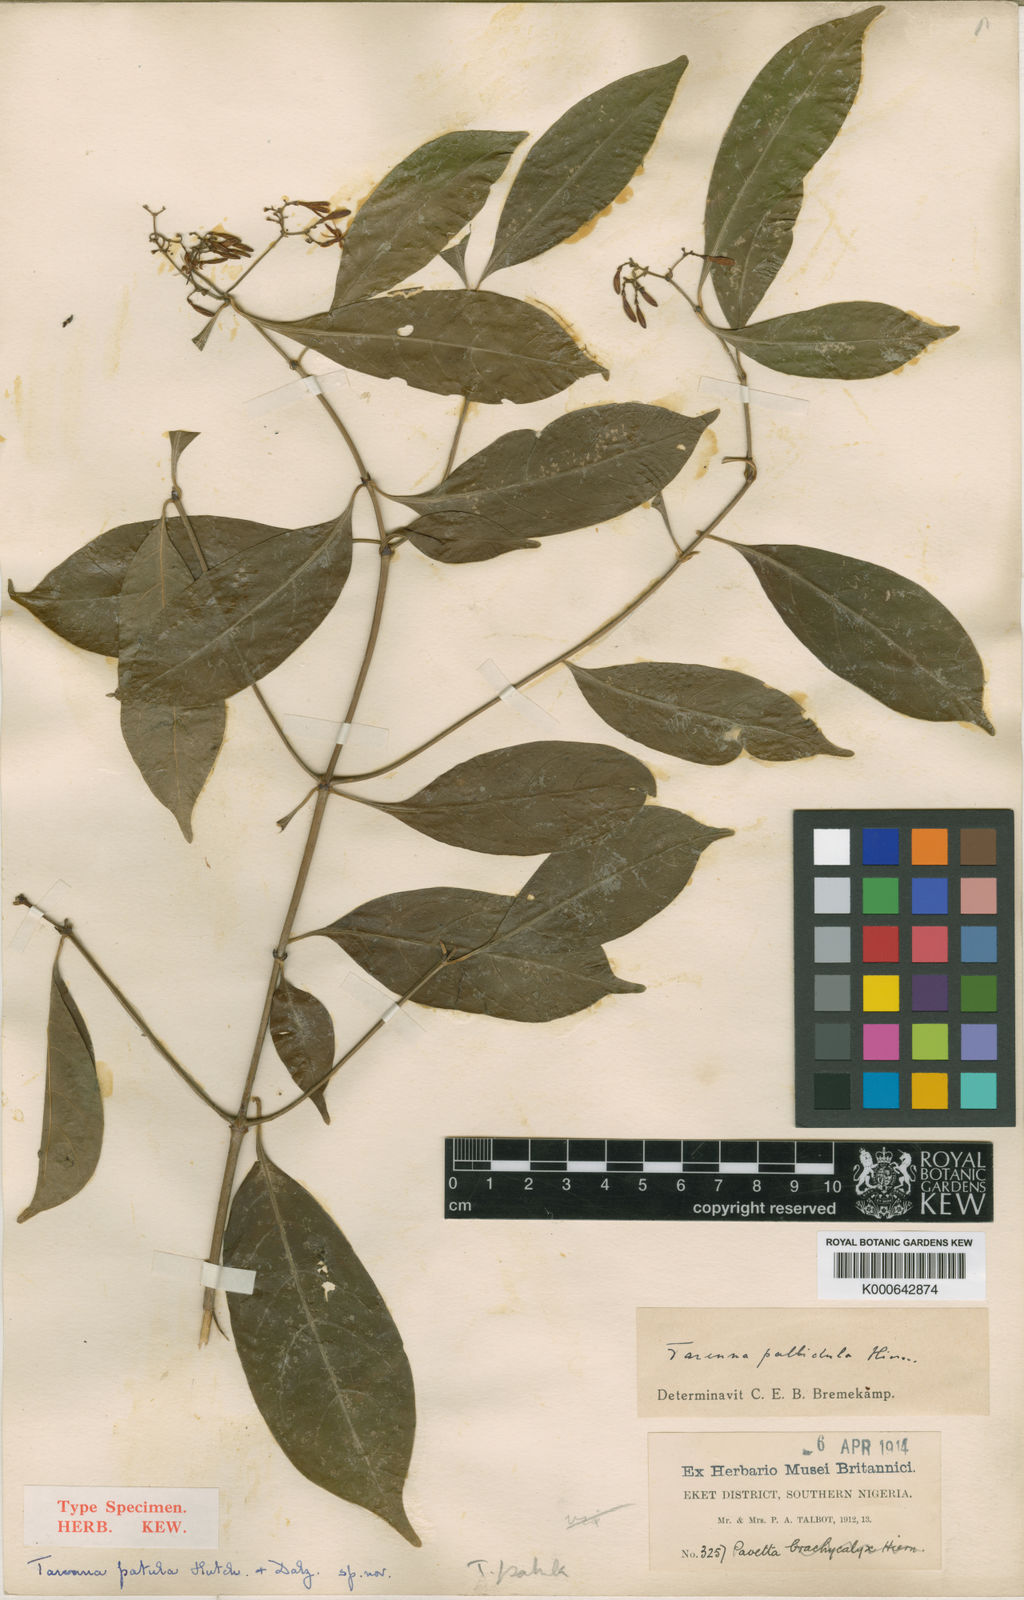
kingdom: Plantae
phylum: Tracheophyta
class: Magnoliopsida
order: Gentianales
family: Rubiaceae
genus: Tarenna
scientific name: Tarenna pallidula
